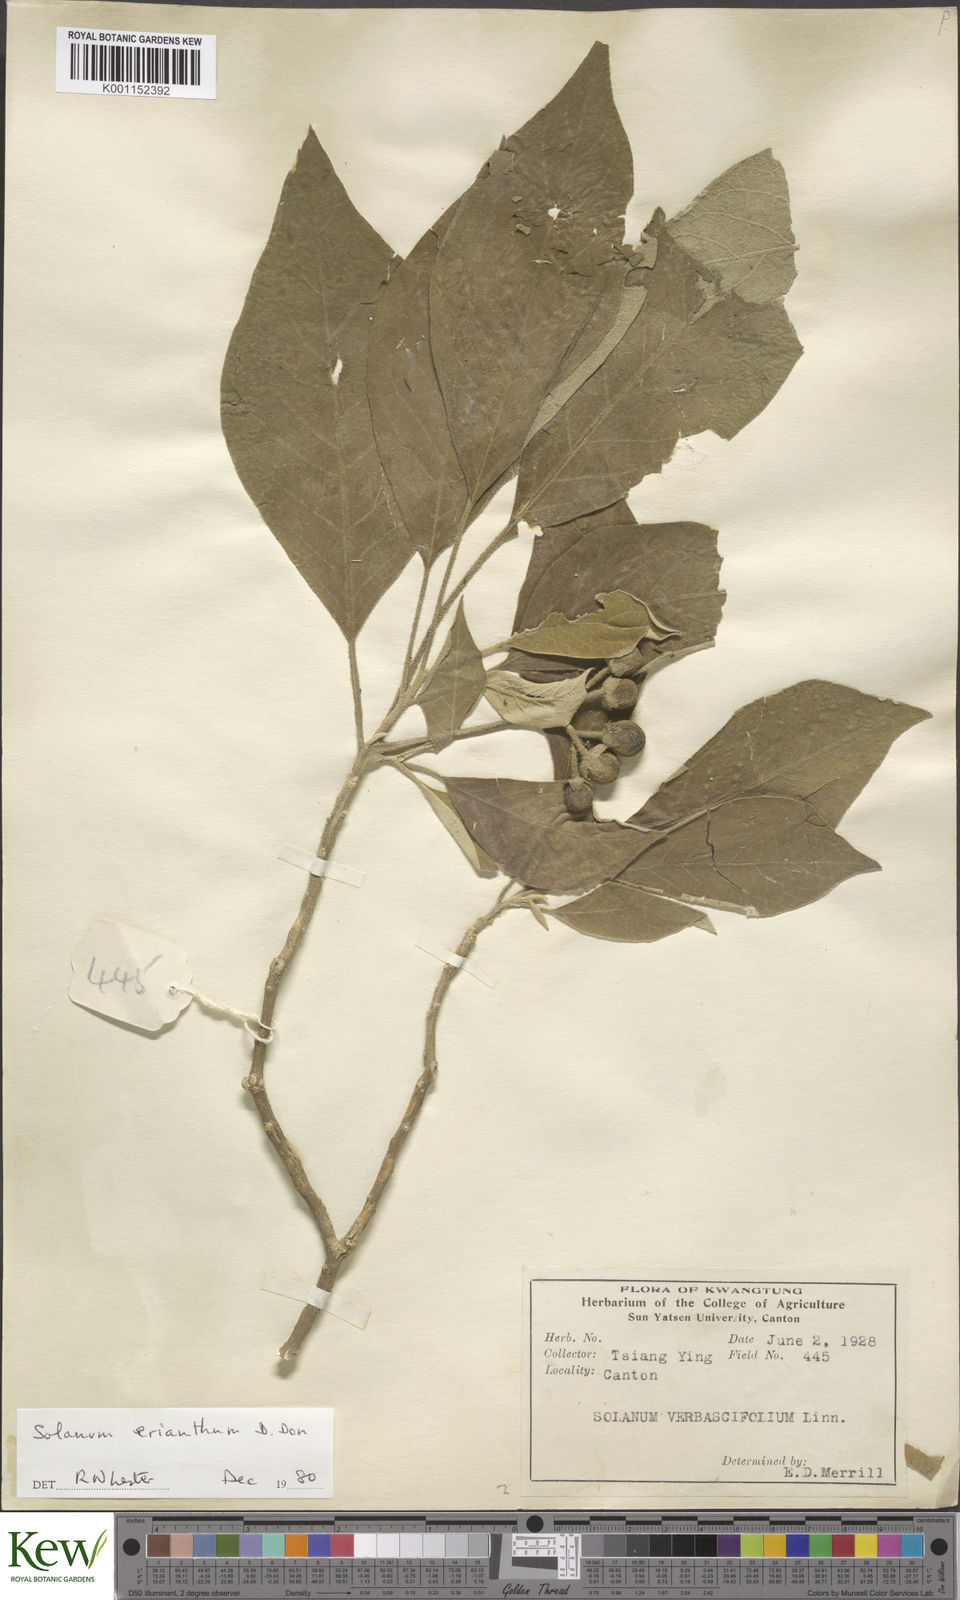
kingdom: Plantae
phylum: Tracheophyta
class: Magnoliopsida
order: Solanales
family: Solanaceae
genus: Solanum
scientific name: Solanum erianthum
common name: Tobacco-tree
